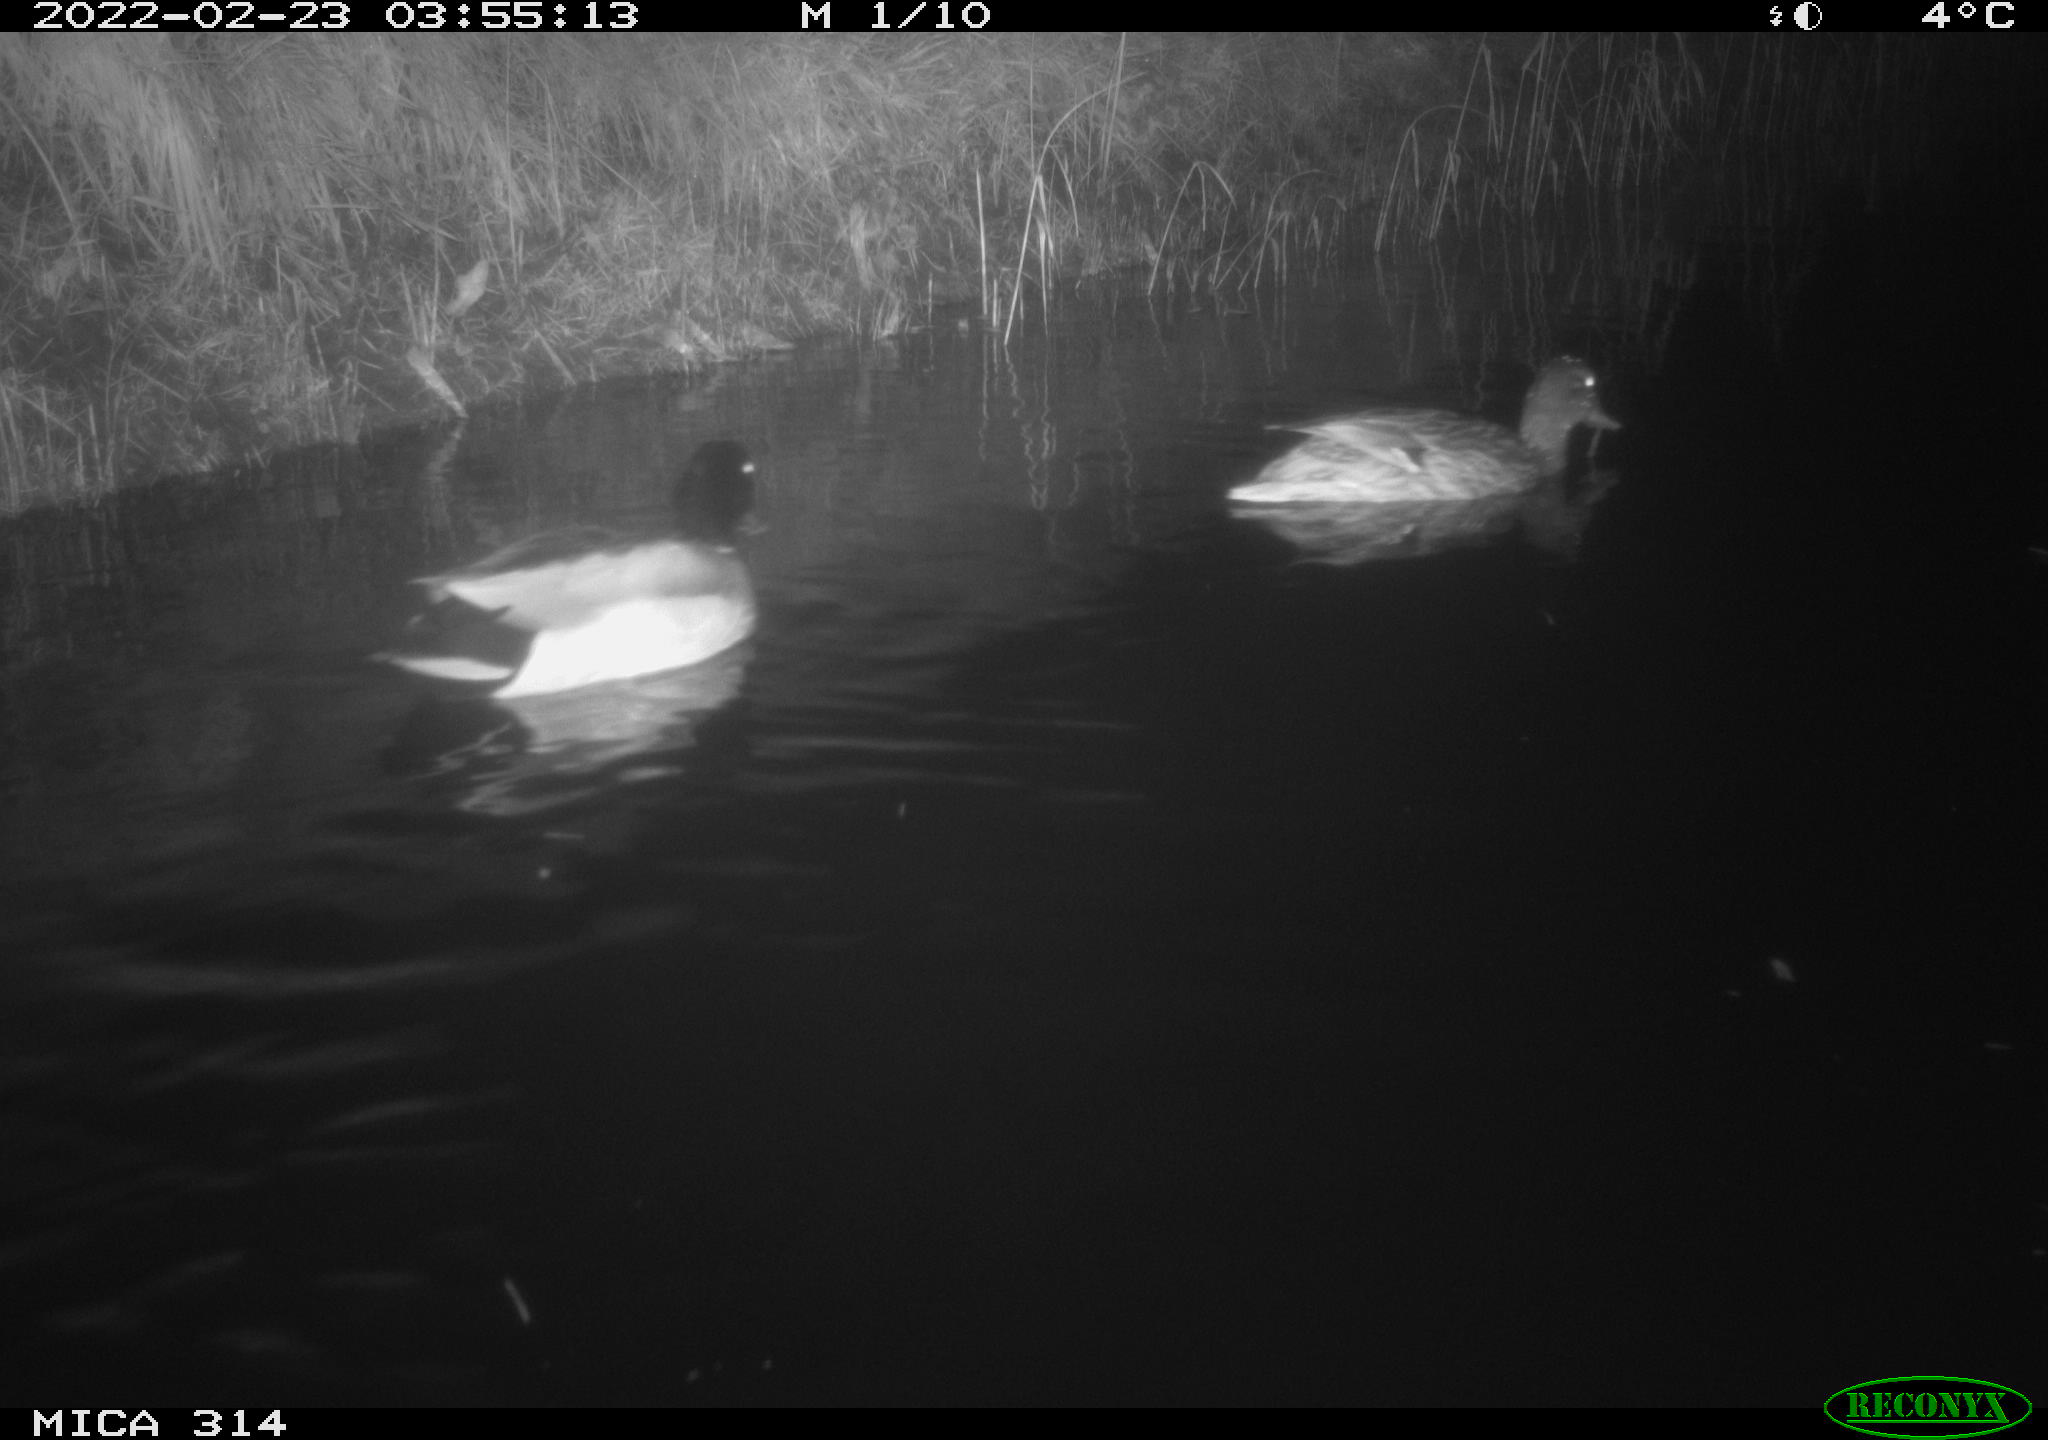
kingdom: Animalia
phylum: Chordata
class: Aves
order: Anseriformes
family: Anatidae
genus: Anas
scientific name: Anas platyrhynchos
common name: Mallard
